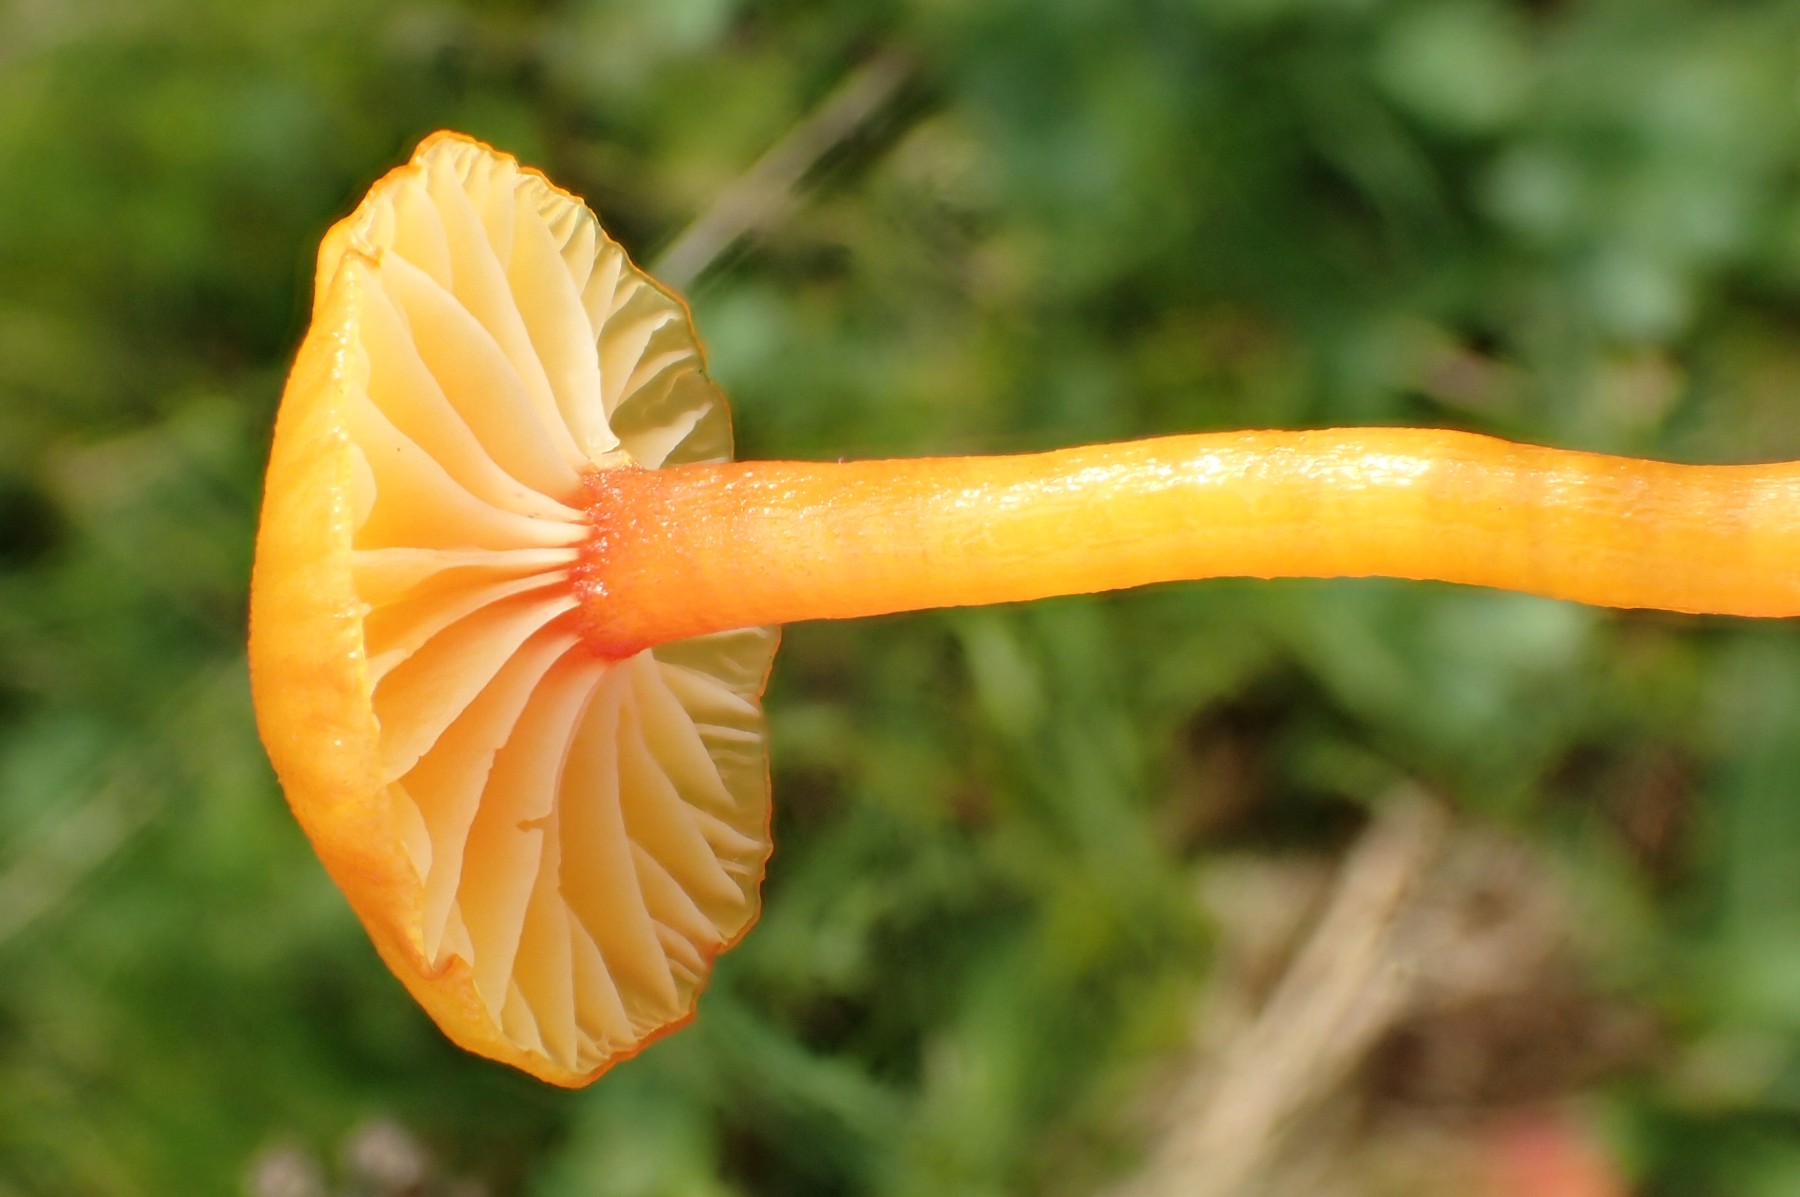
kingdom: Fungi
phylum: Basidiomycota
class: Agaricomycetes
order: Agaricales
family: Hygrophoraceae
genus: Hygrocybe
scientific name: Hygrocybe insipida
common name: liden vokshat
